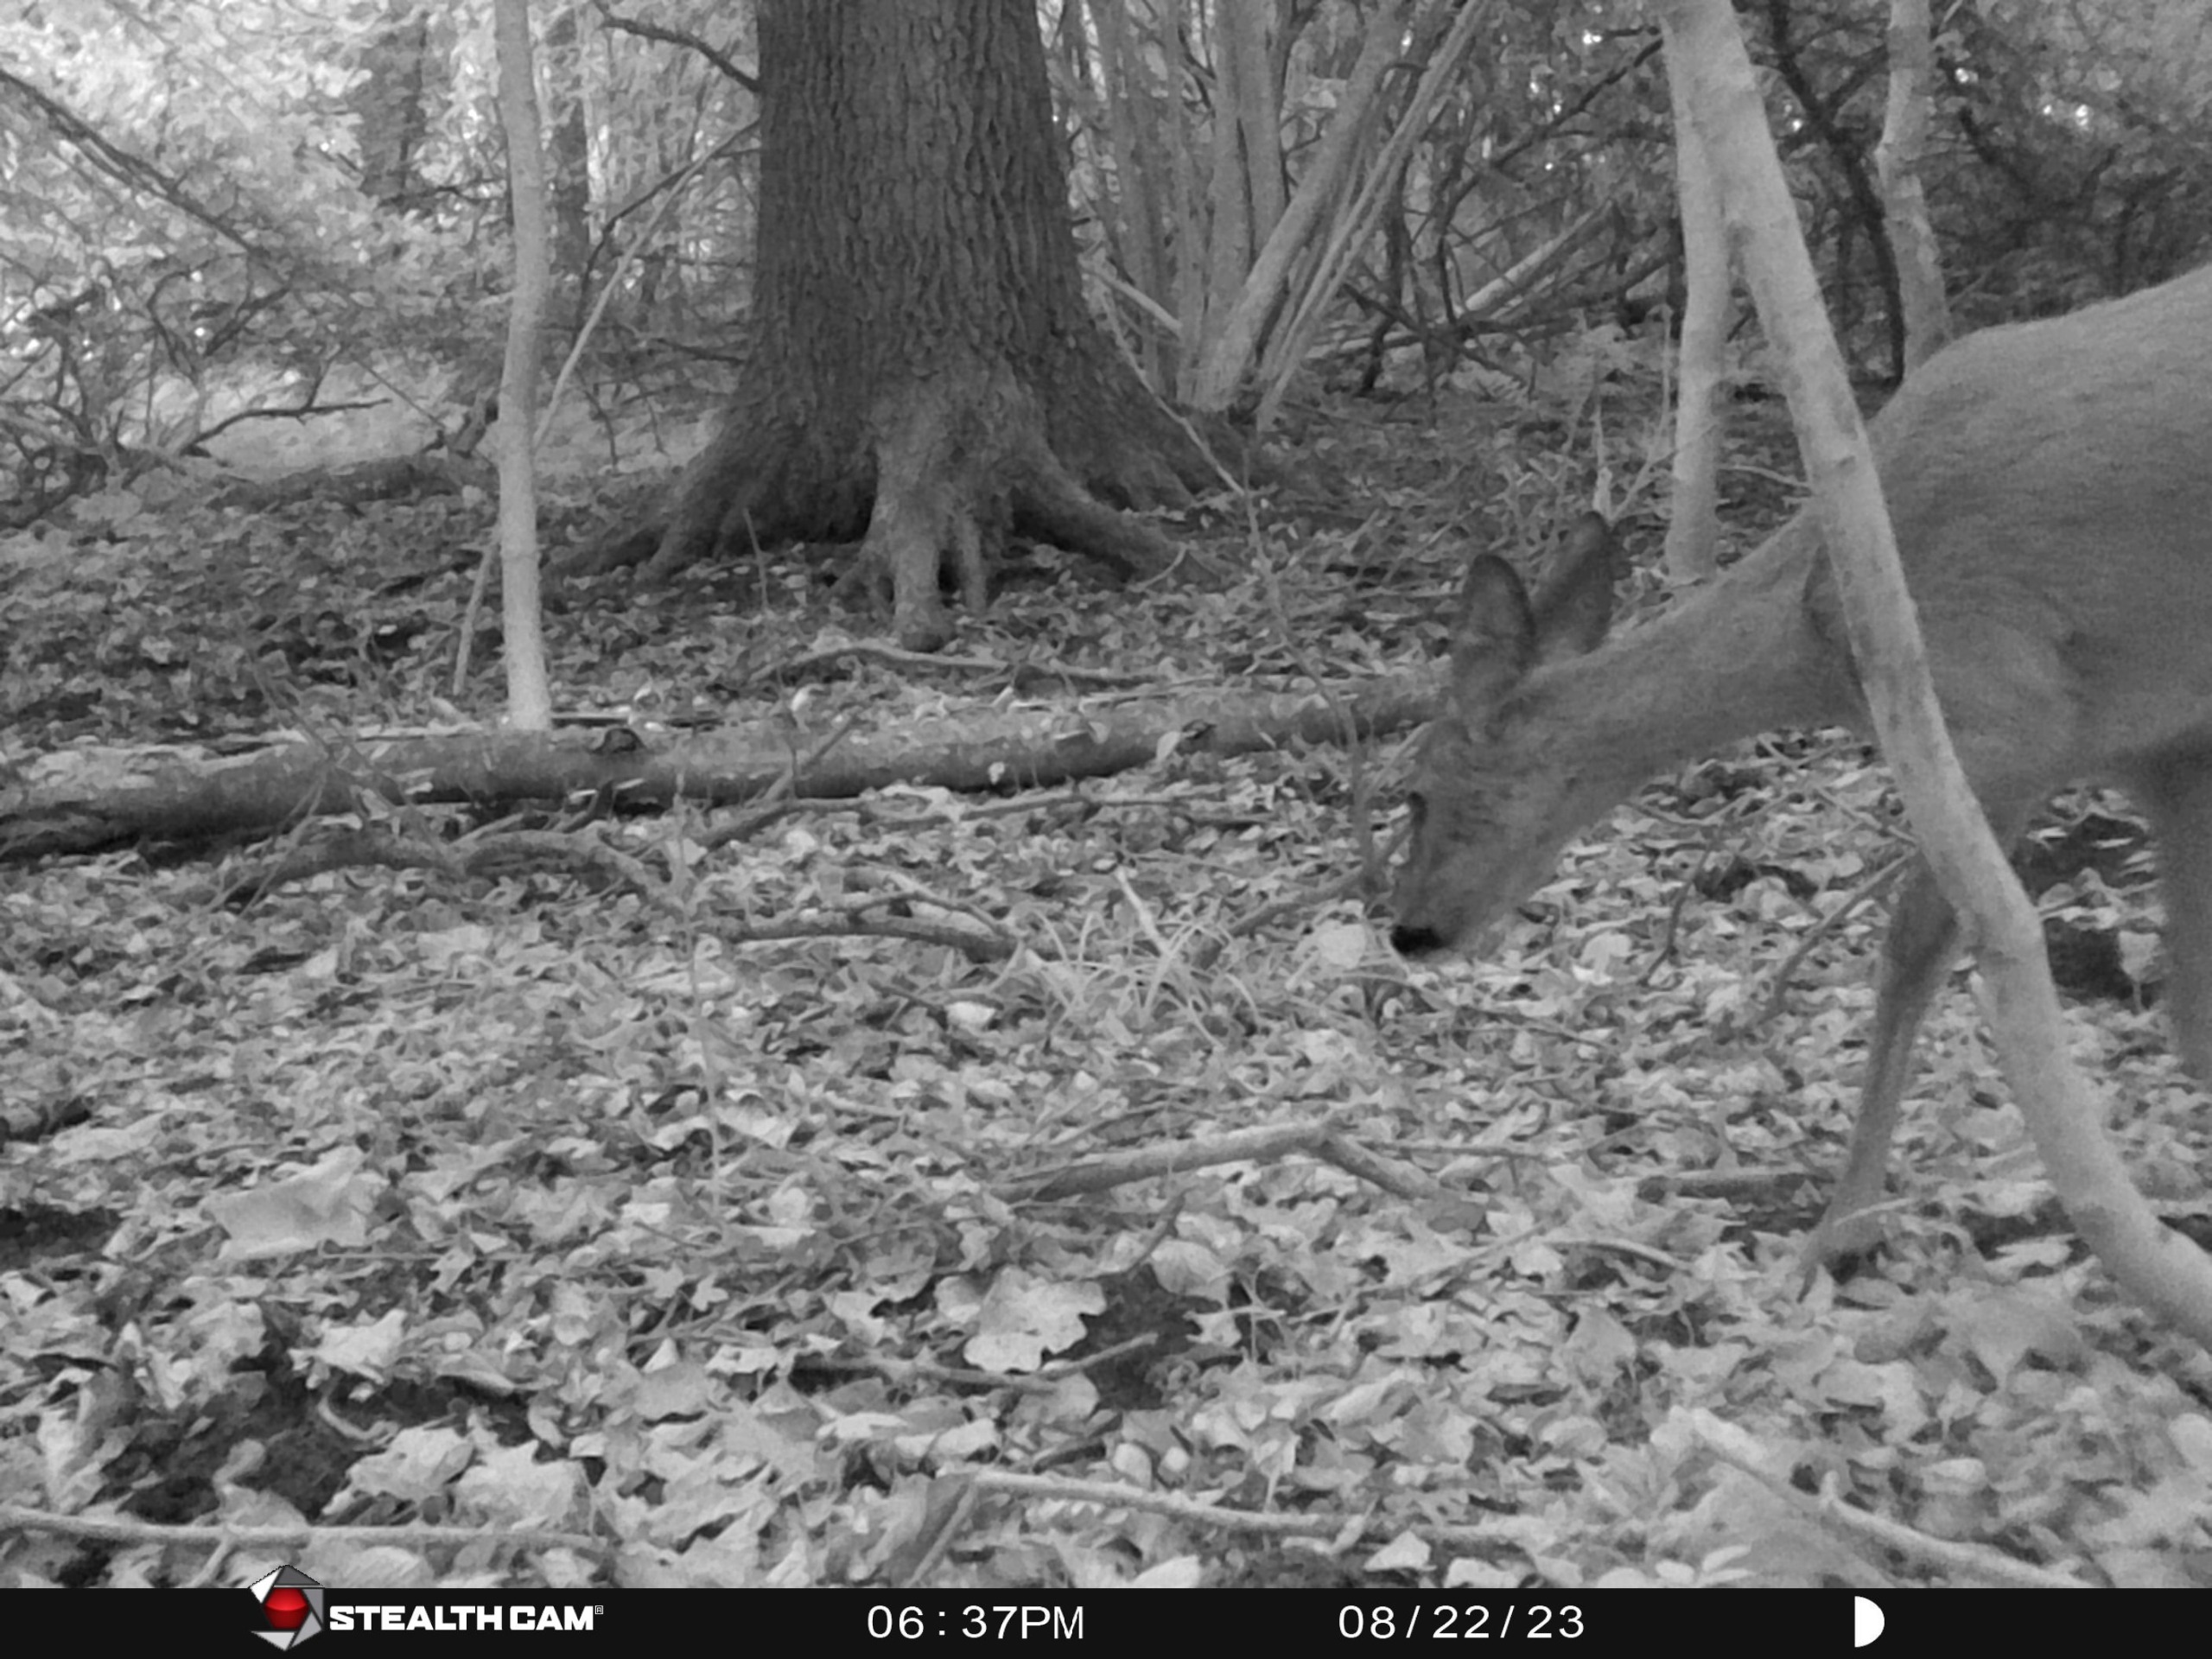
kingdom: Animalia
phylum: Chordata
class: Mammalia
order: Artiodactyla
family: Cervidae
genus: Capreolus
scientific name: Capreolus capreolus
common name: Rådyr
